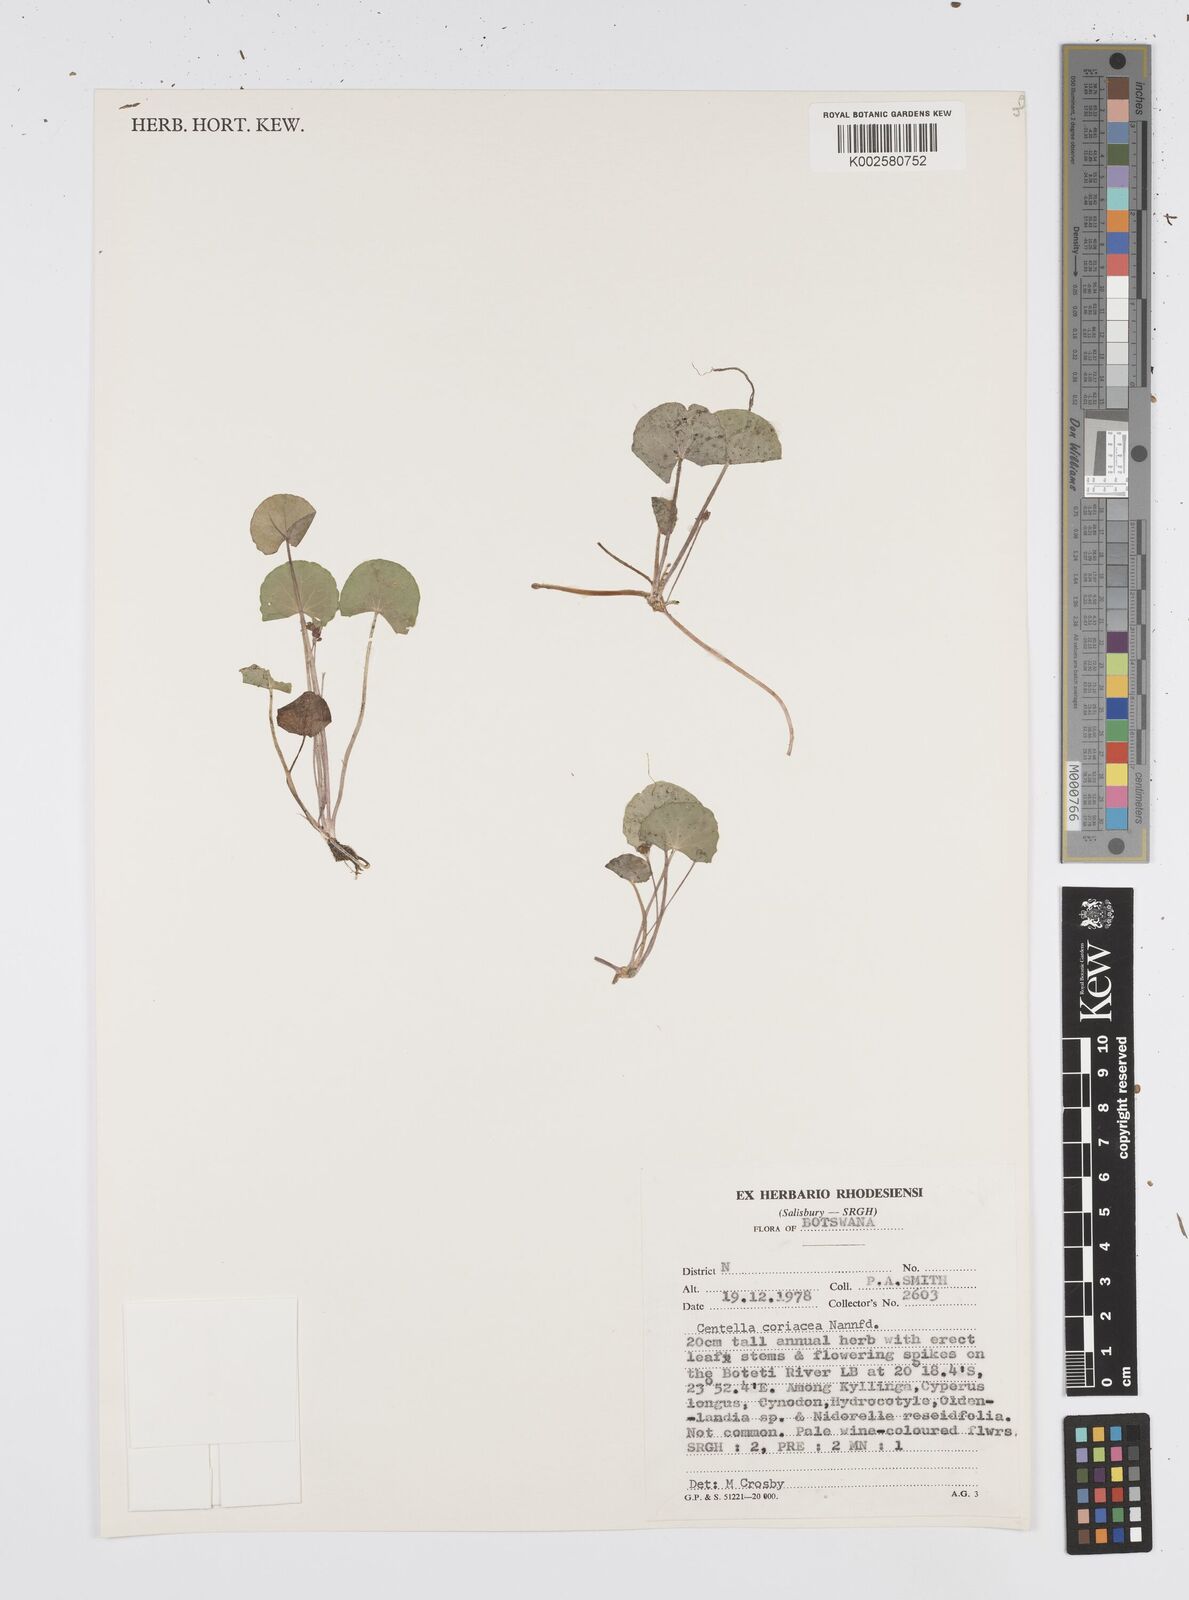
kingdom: Plantae
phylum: Tracheophyta
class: Magnoliopsida
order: Apiales
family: Apiaceae
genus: Centella
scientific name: Centella asiatica
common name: Spadeleaf
